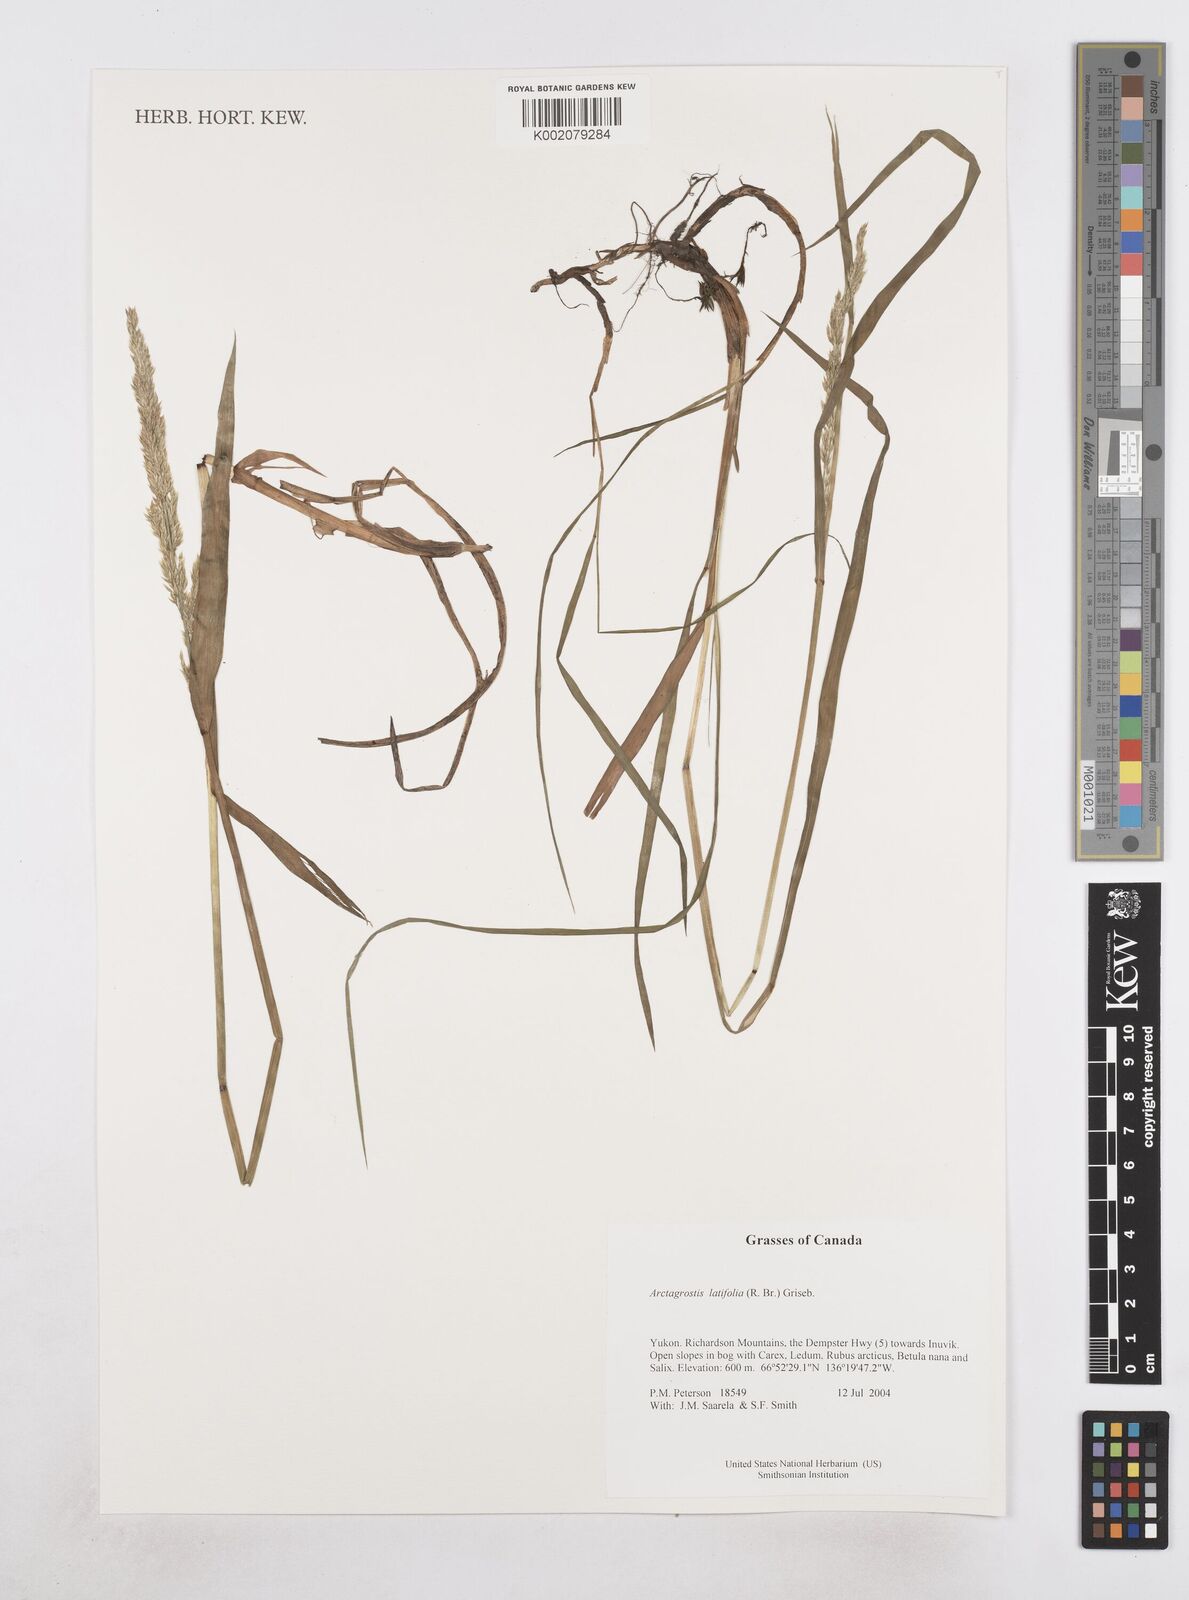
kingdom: Plantae
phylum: Tracheophyta
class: Liliopsida
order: Poales
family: Poaceae
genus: Arctagrostis
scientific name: Arctagrostis latifolia
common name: Arctic grass
